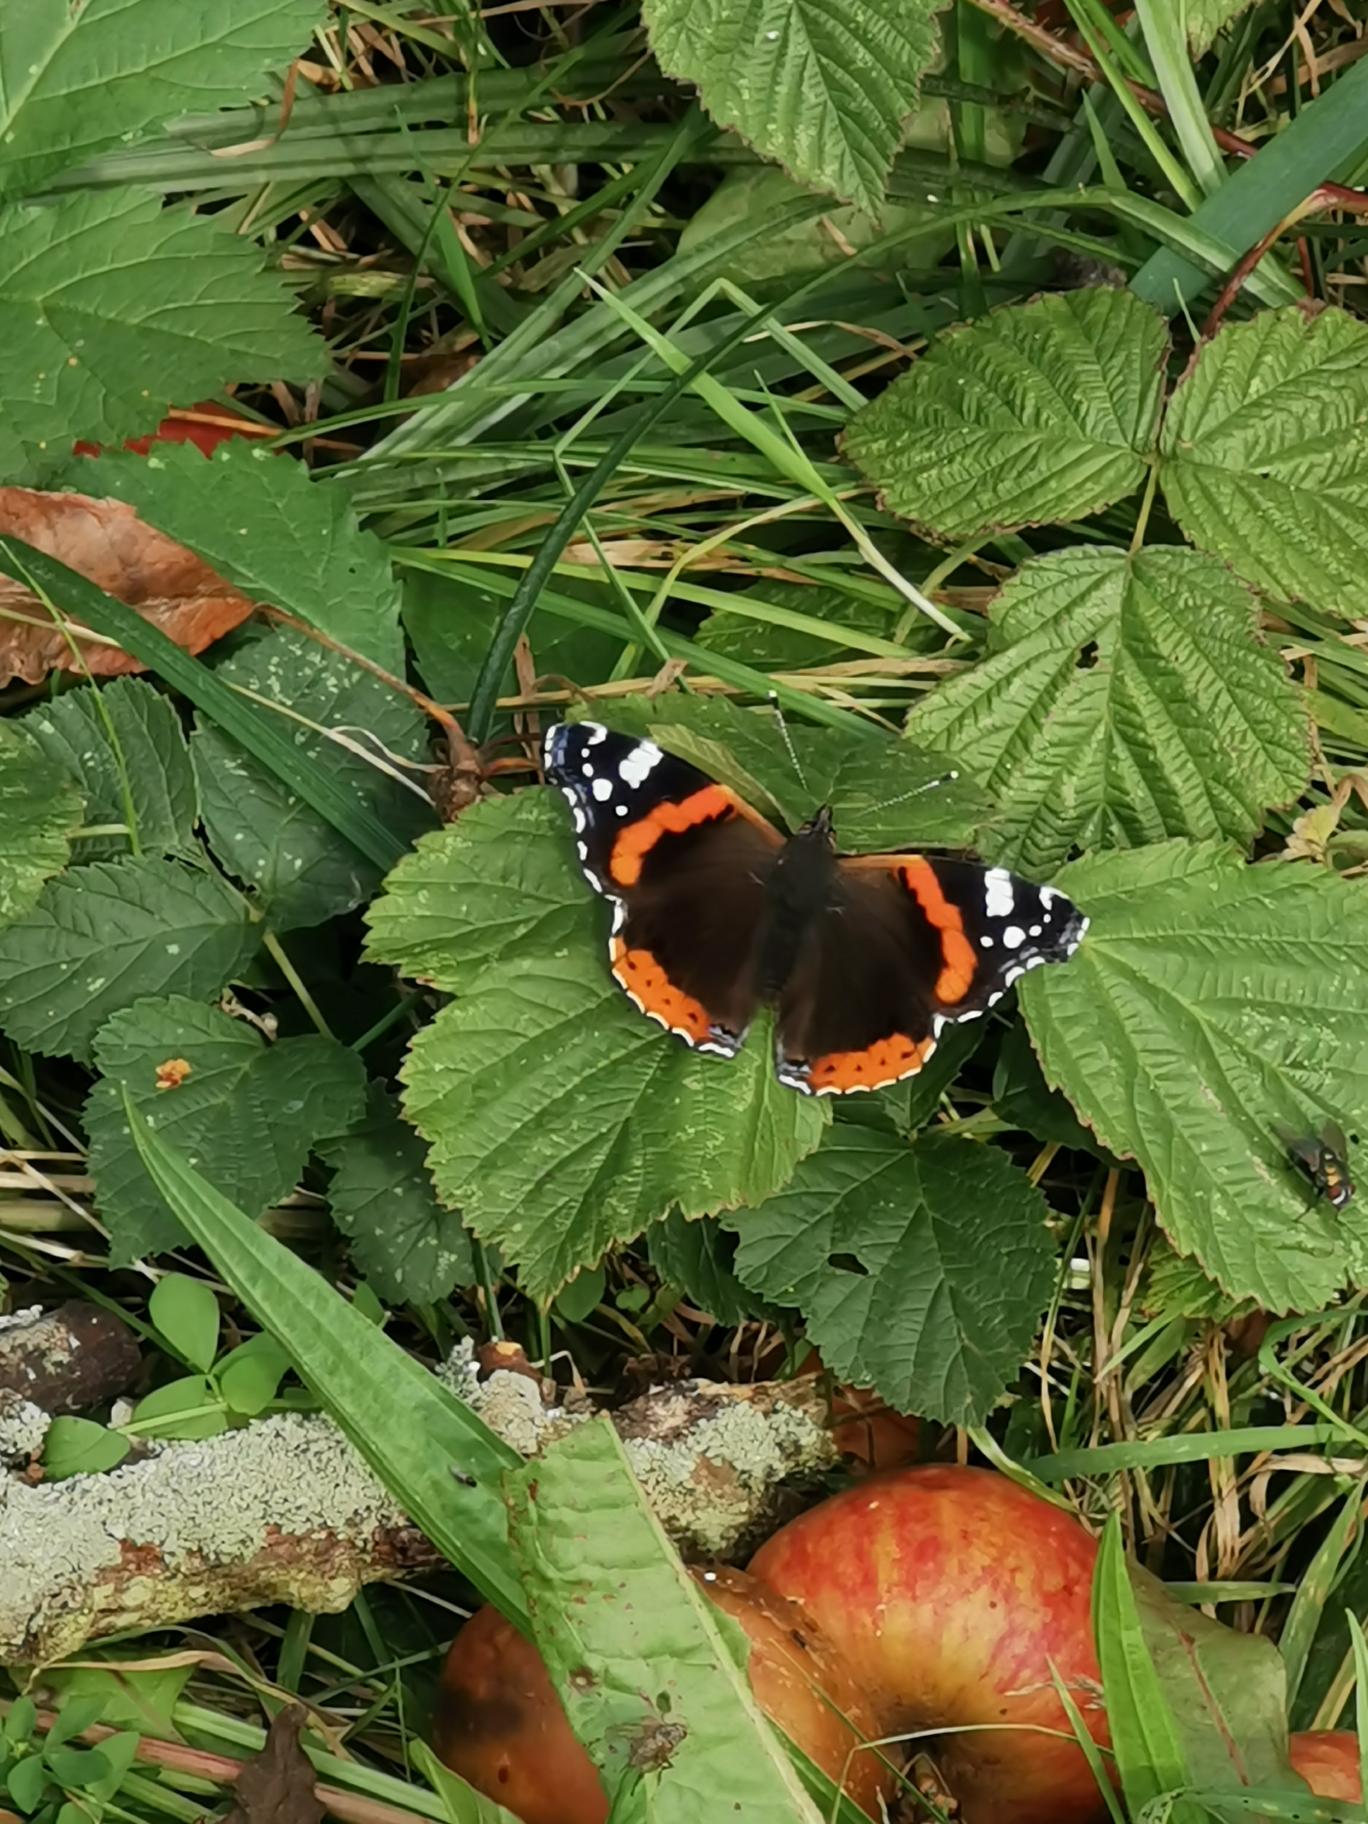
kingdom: Animalia
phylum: Arthropoda
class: Insecta
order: Lepidoptera
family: Nymphalidae
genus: Vanessa
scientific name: Vanessa atalanta
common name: Admiral
